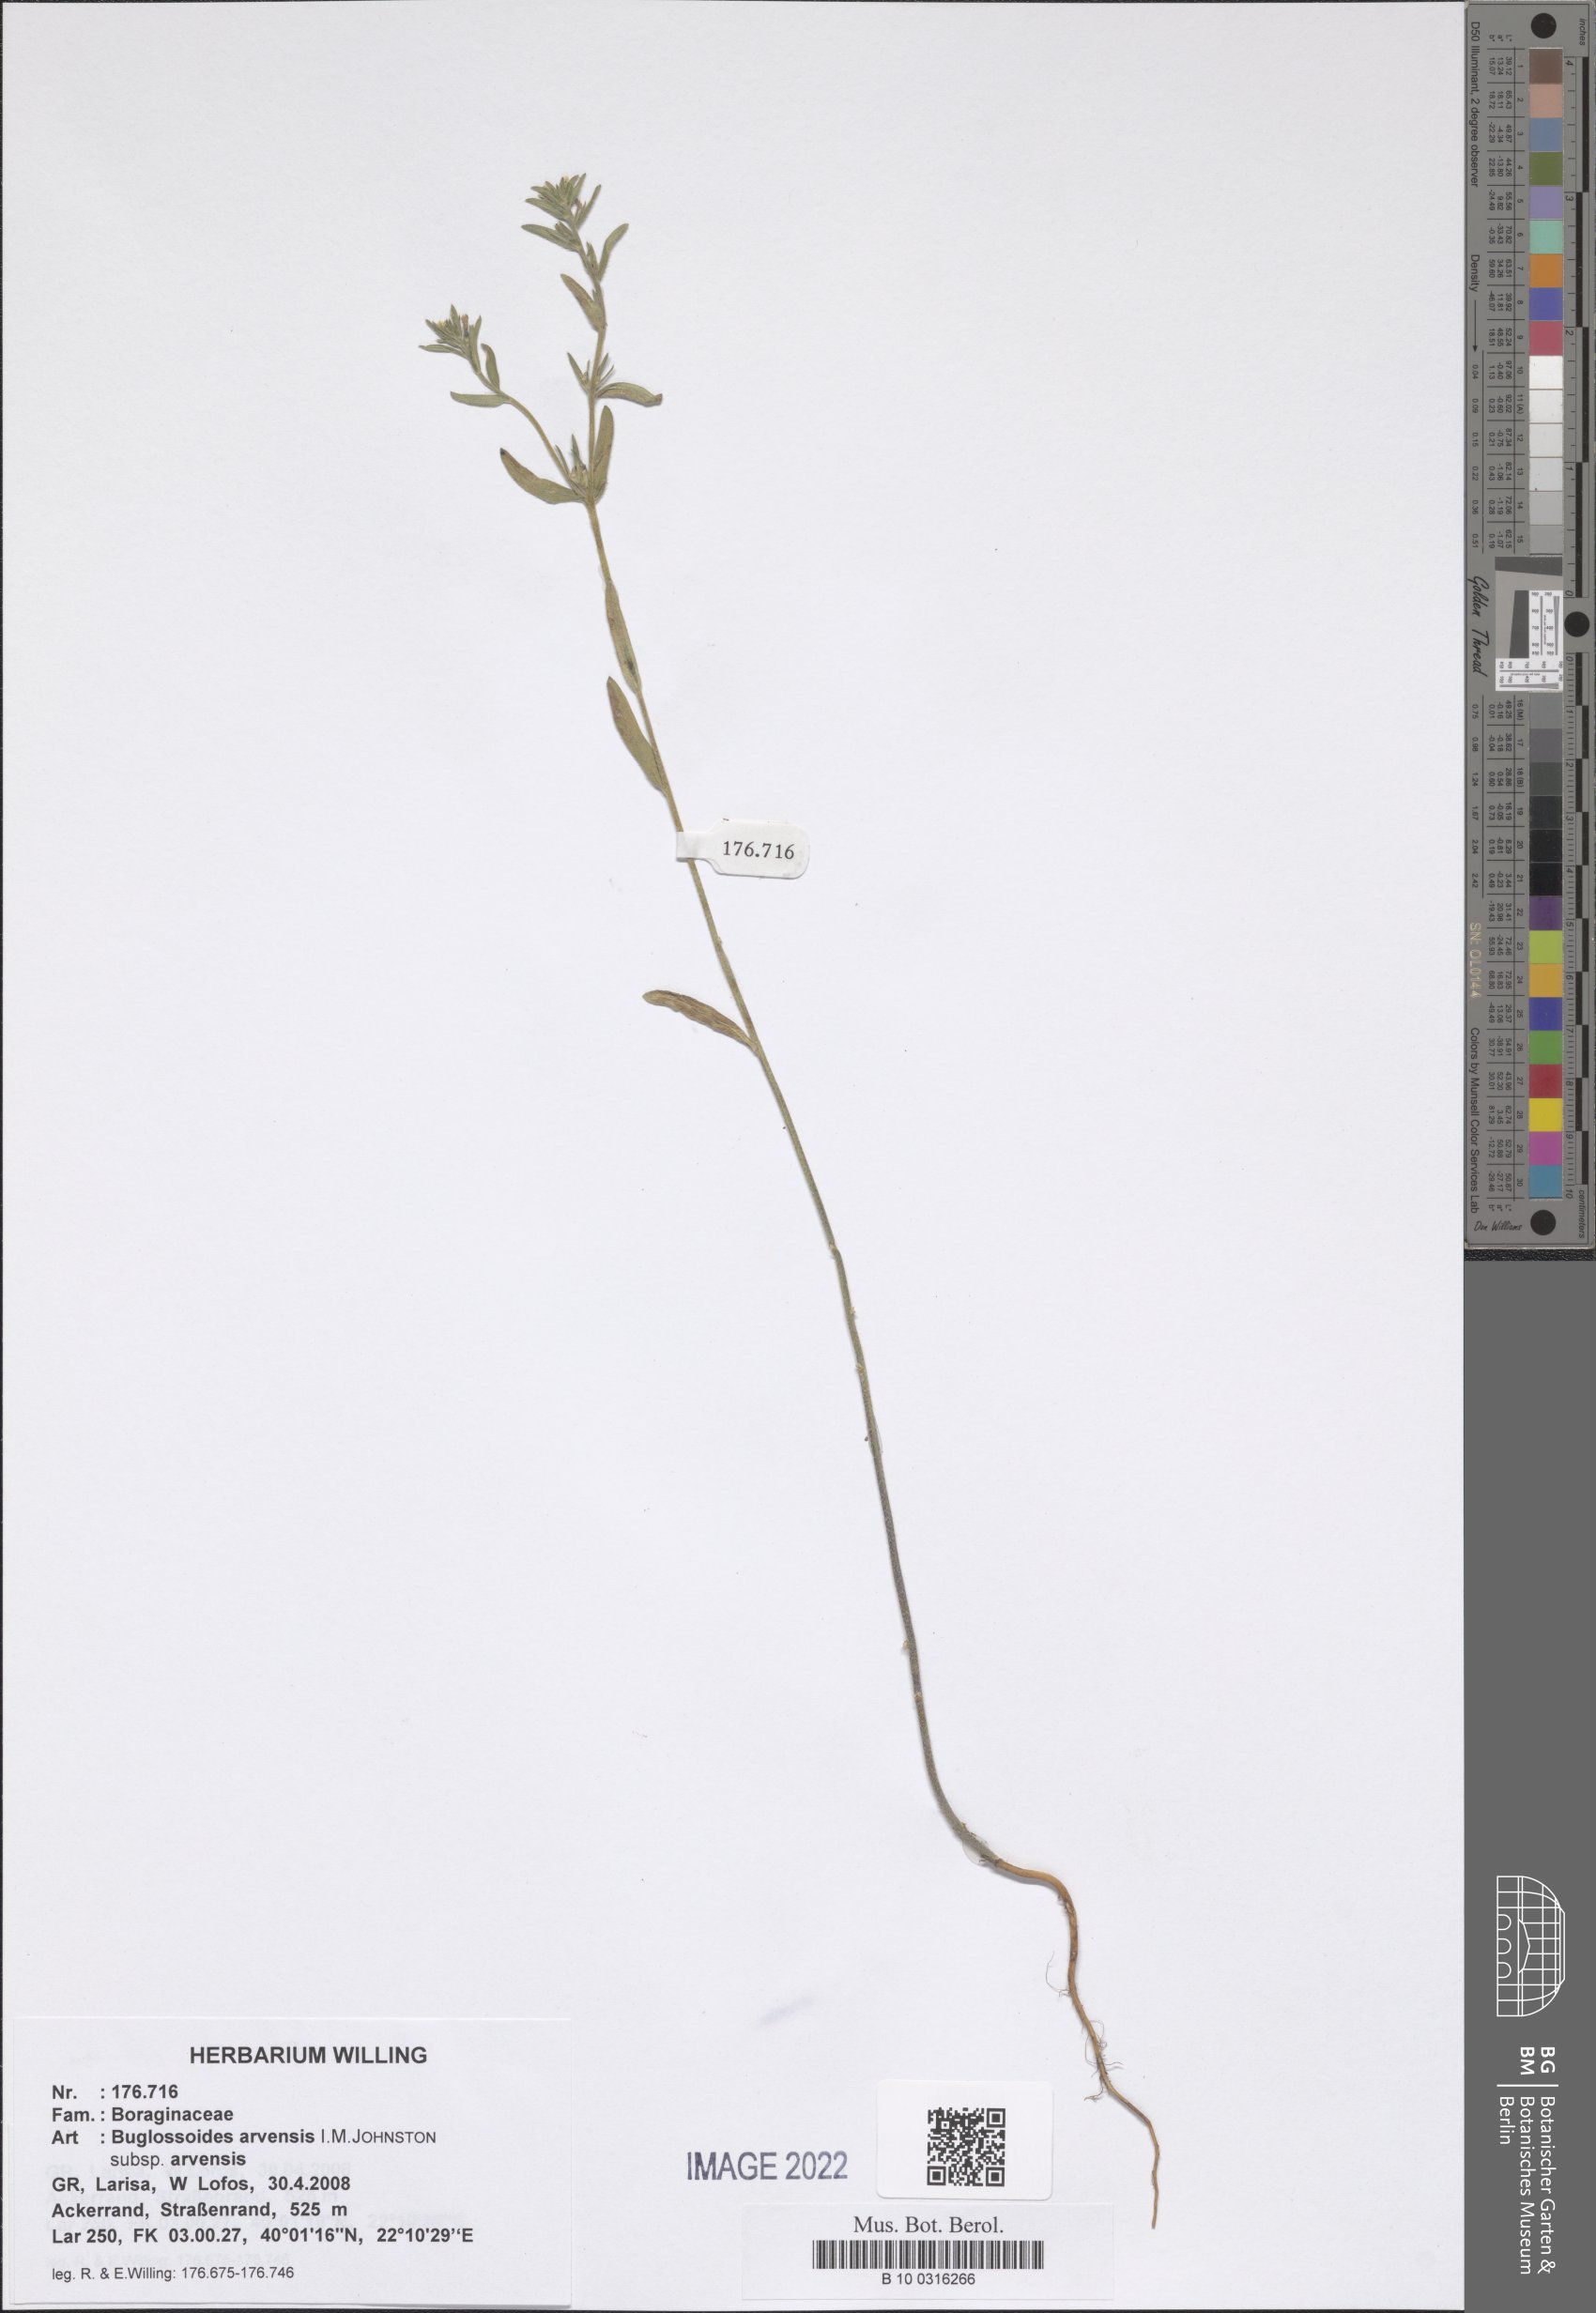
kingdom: Plantae
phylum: Tracheophyta
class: Magnoliopsida
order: Boraginales
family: Boraginaceae
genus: Buglossoides
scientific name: Buglossoides arvensis
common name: Corn gromwell
